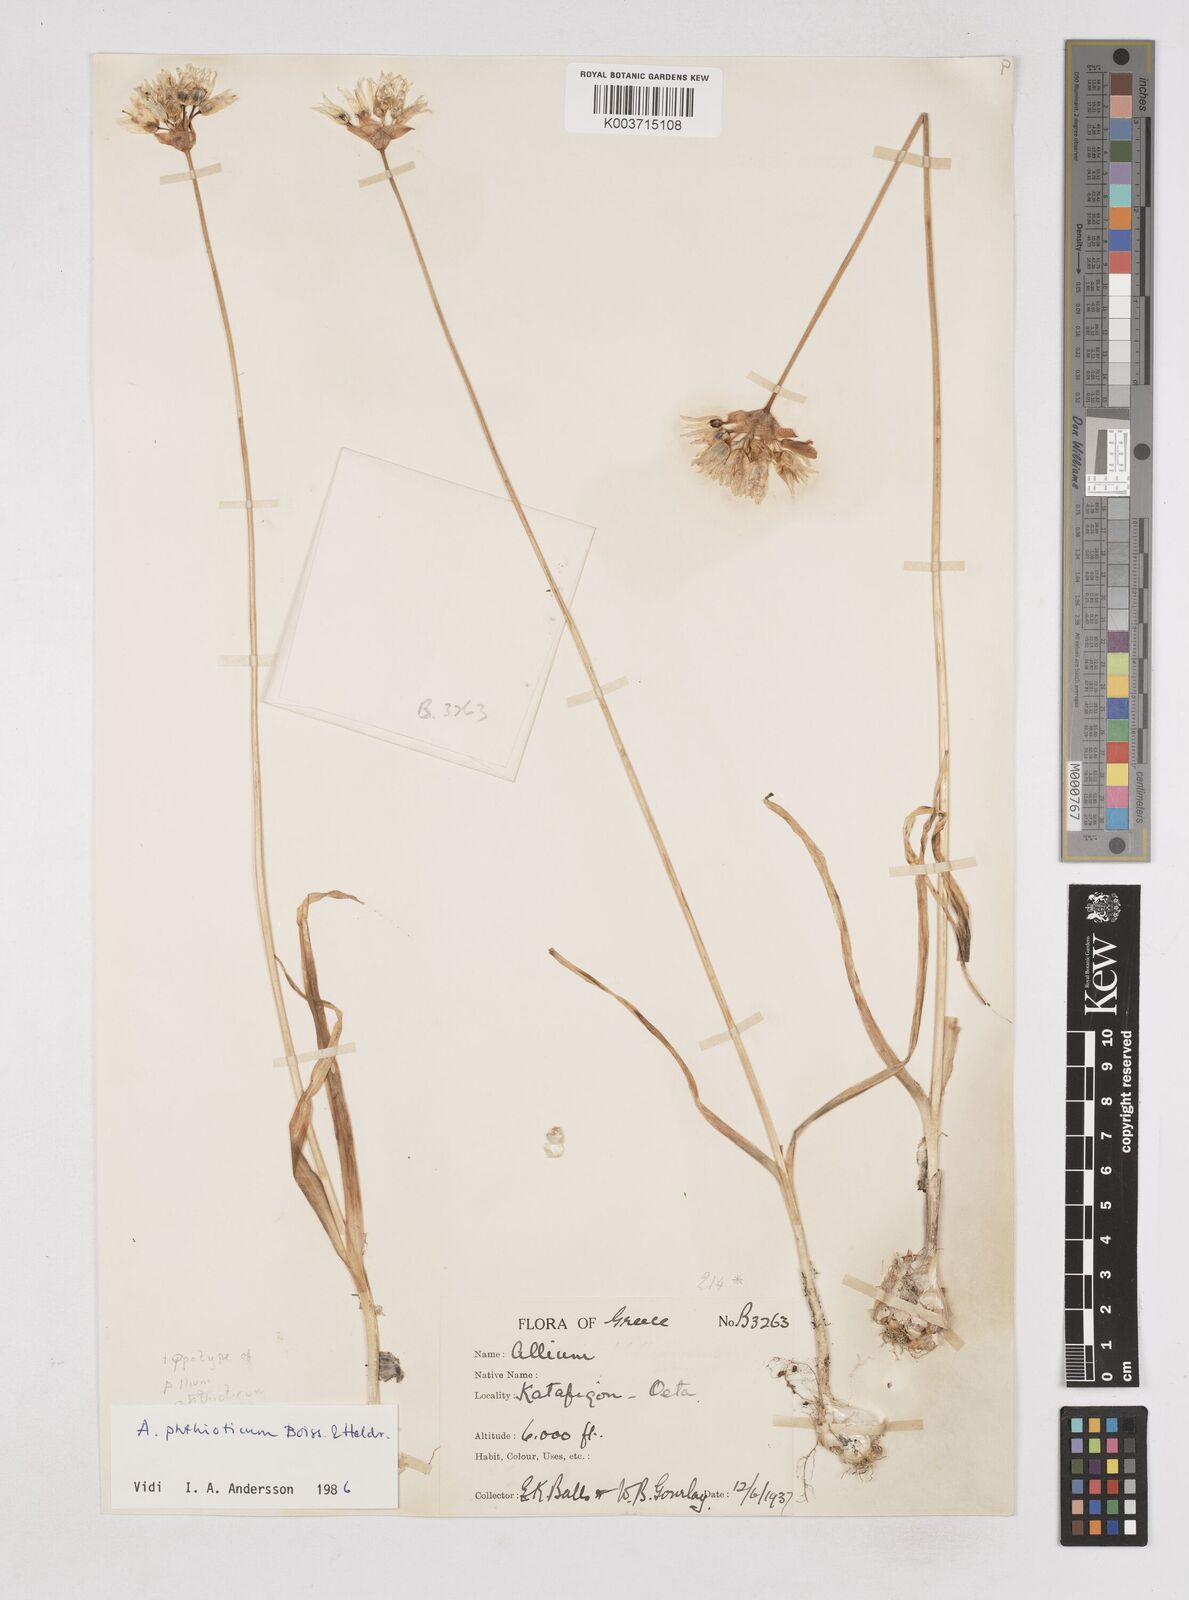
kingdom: Plantae
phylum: Tracheophyta
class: Liliopsida
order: Asparagales
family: Amaryllidaceae
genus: Allium
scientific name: Allium phthioticum
